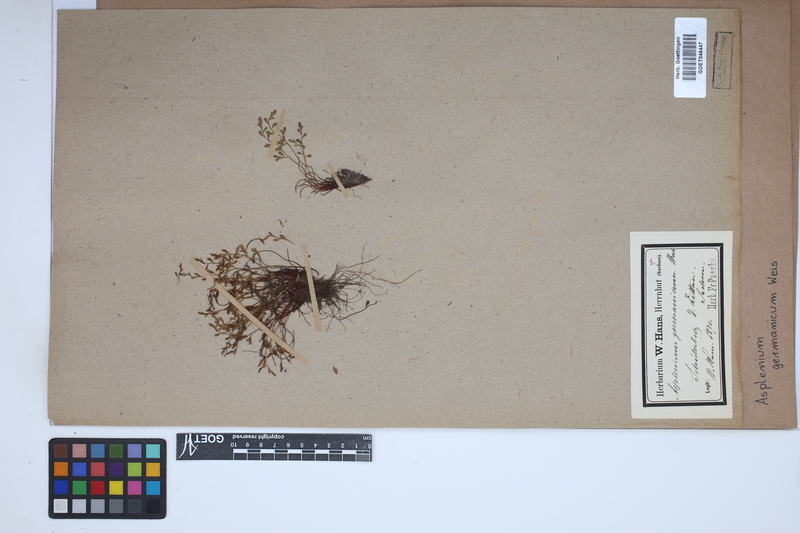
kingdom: Plantae
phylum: Tracheophyta
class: Polypodiopsida
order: Polypodiales
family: Aspleniaceae
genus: Asplenium
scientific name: Asplenium
